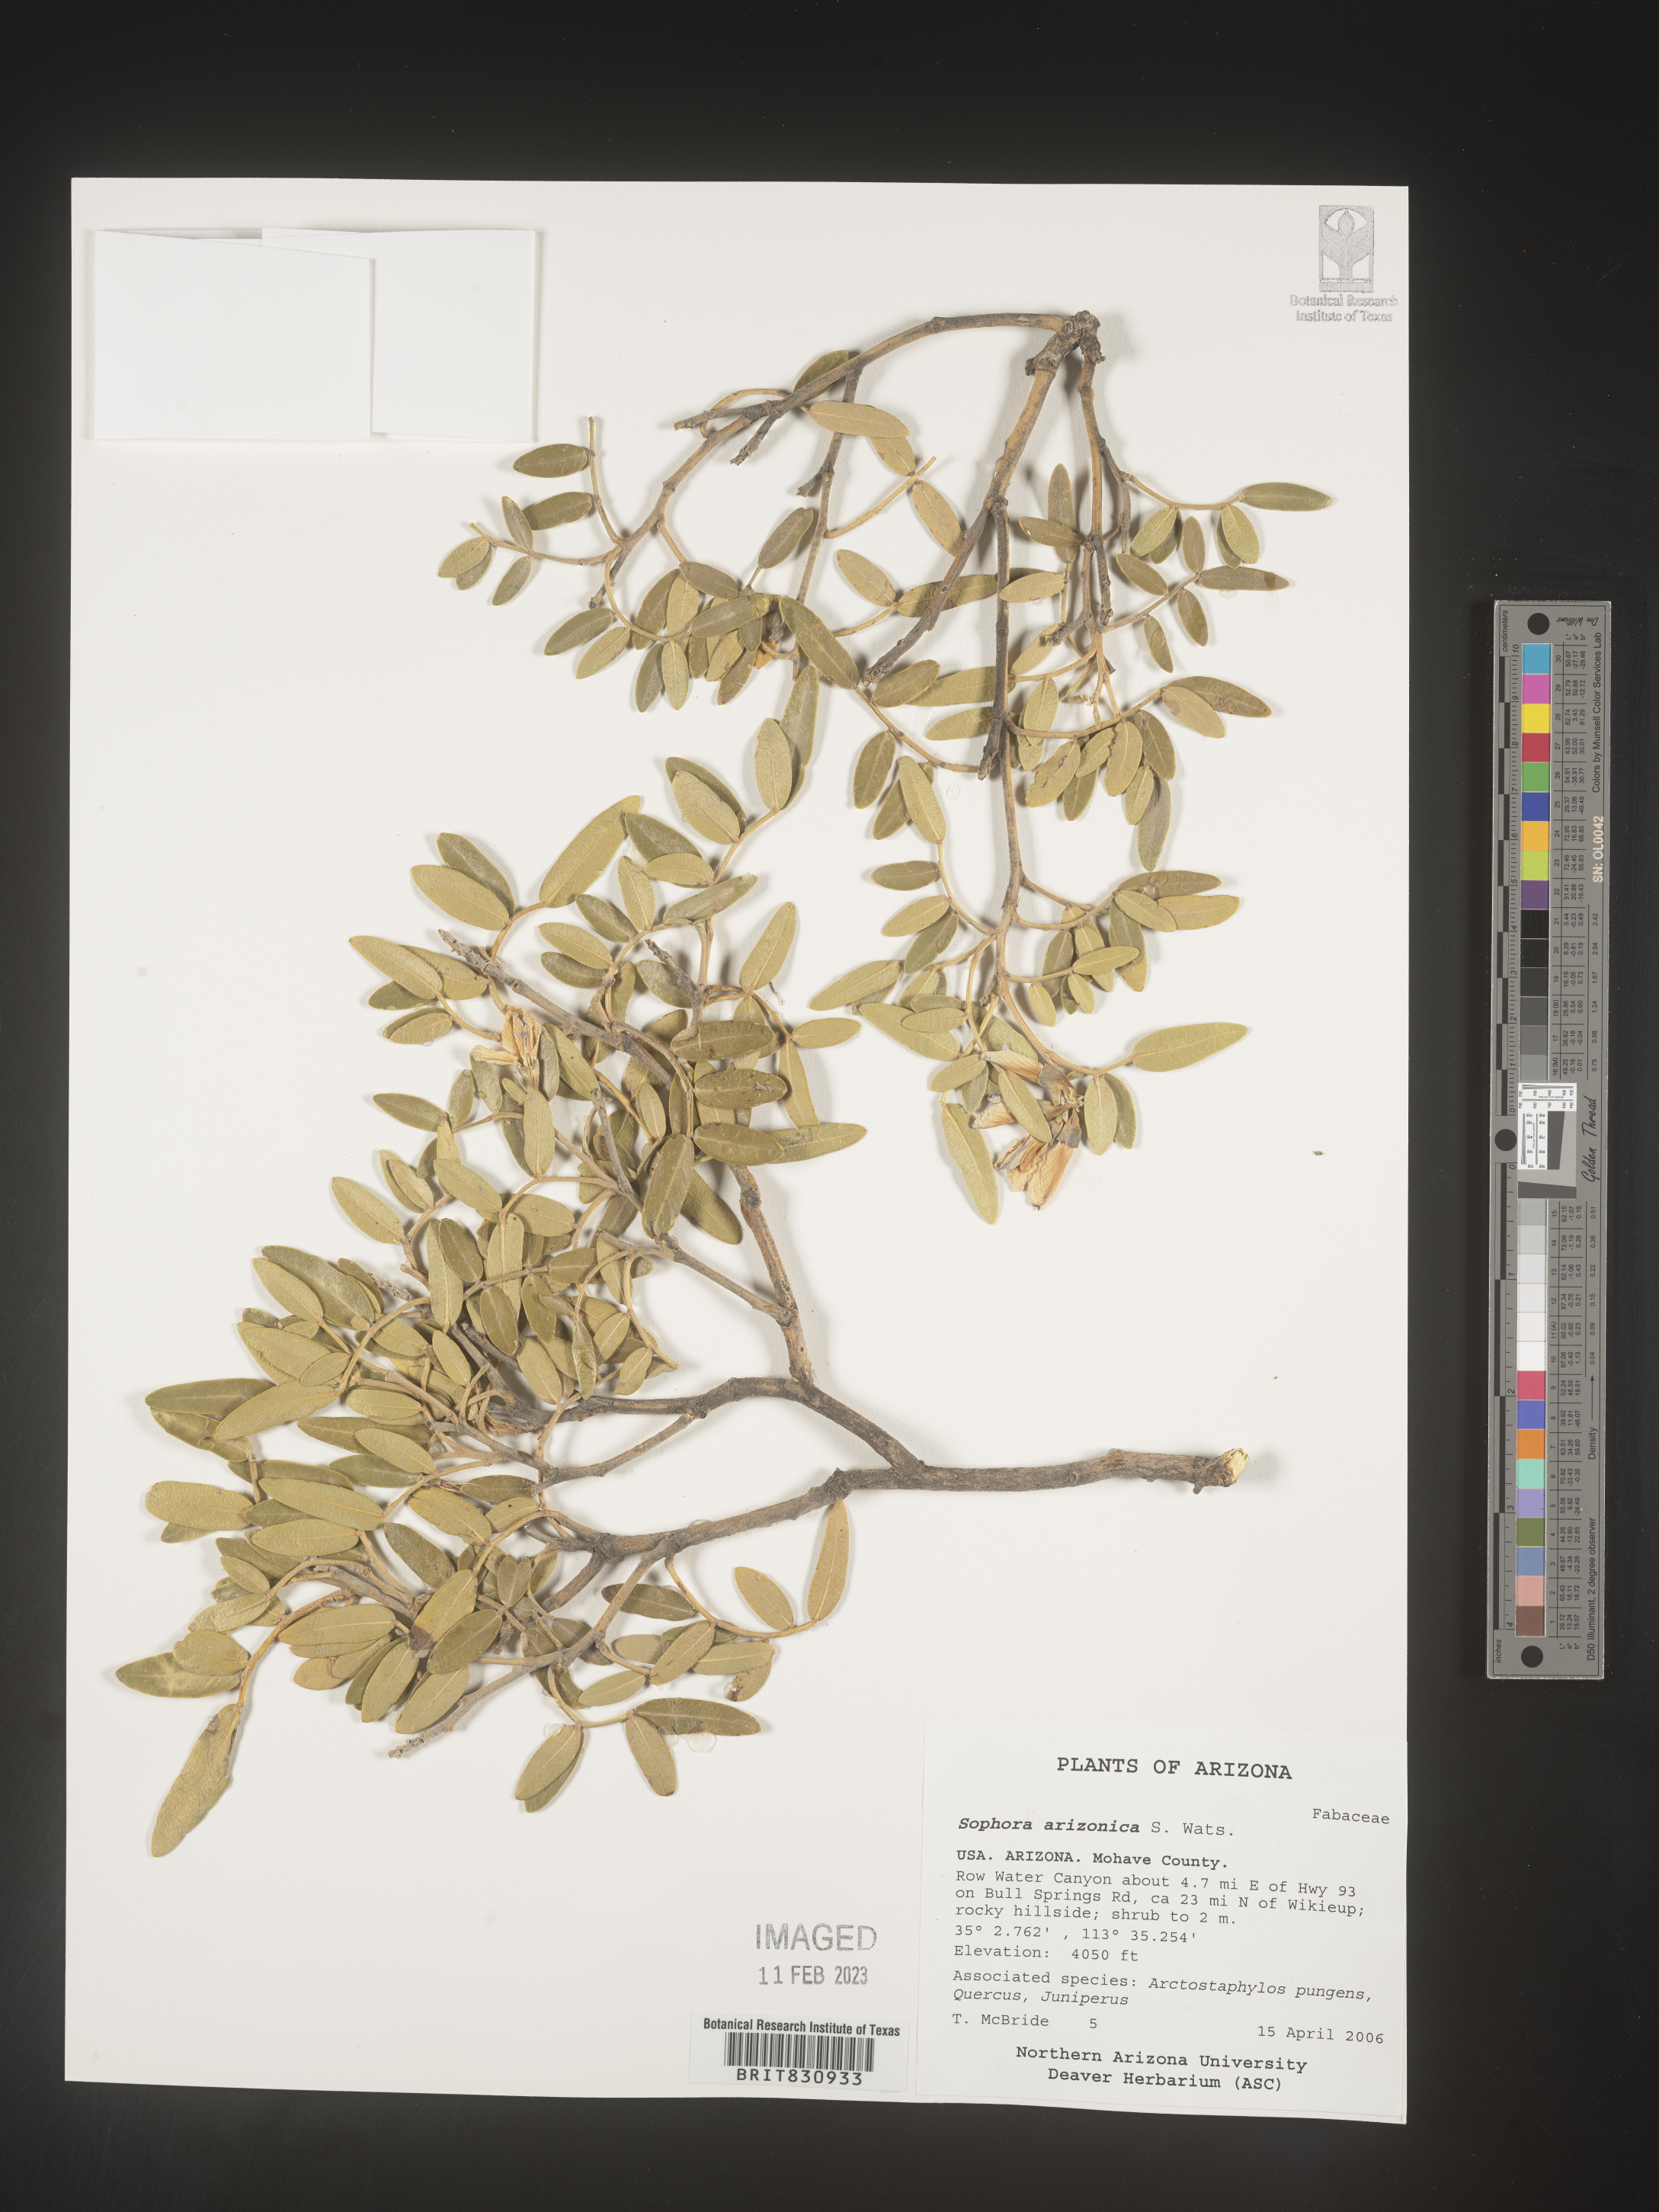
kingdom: Plantae
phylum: Tracheophyta
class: Magnoliopsida
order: Fabales
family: Fabaceae
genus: Dermatophyllum
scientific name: Dermatophyllum arizonicum
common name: Arizona necklace
